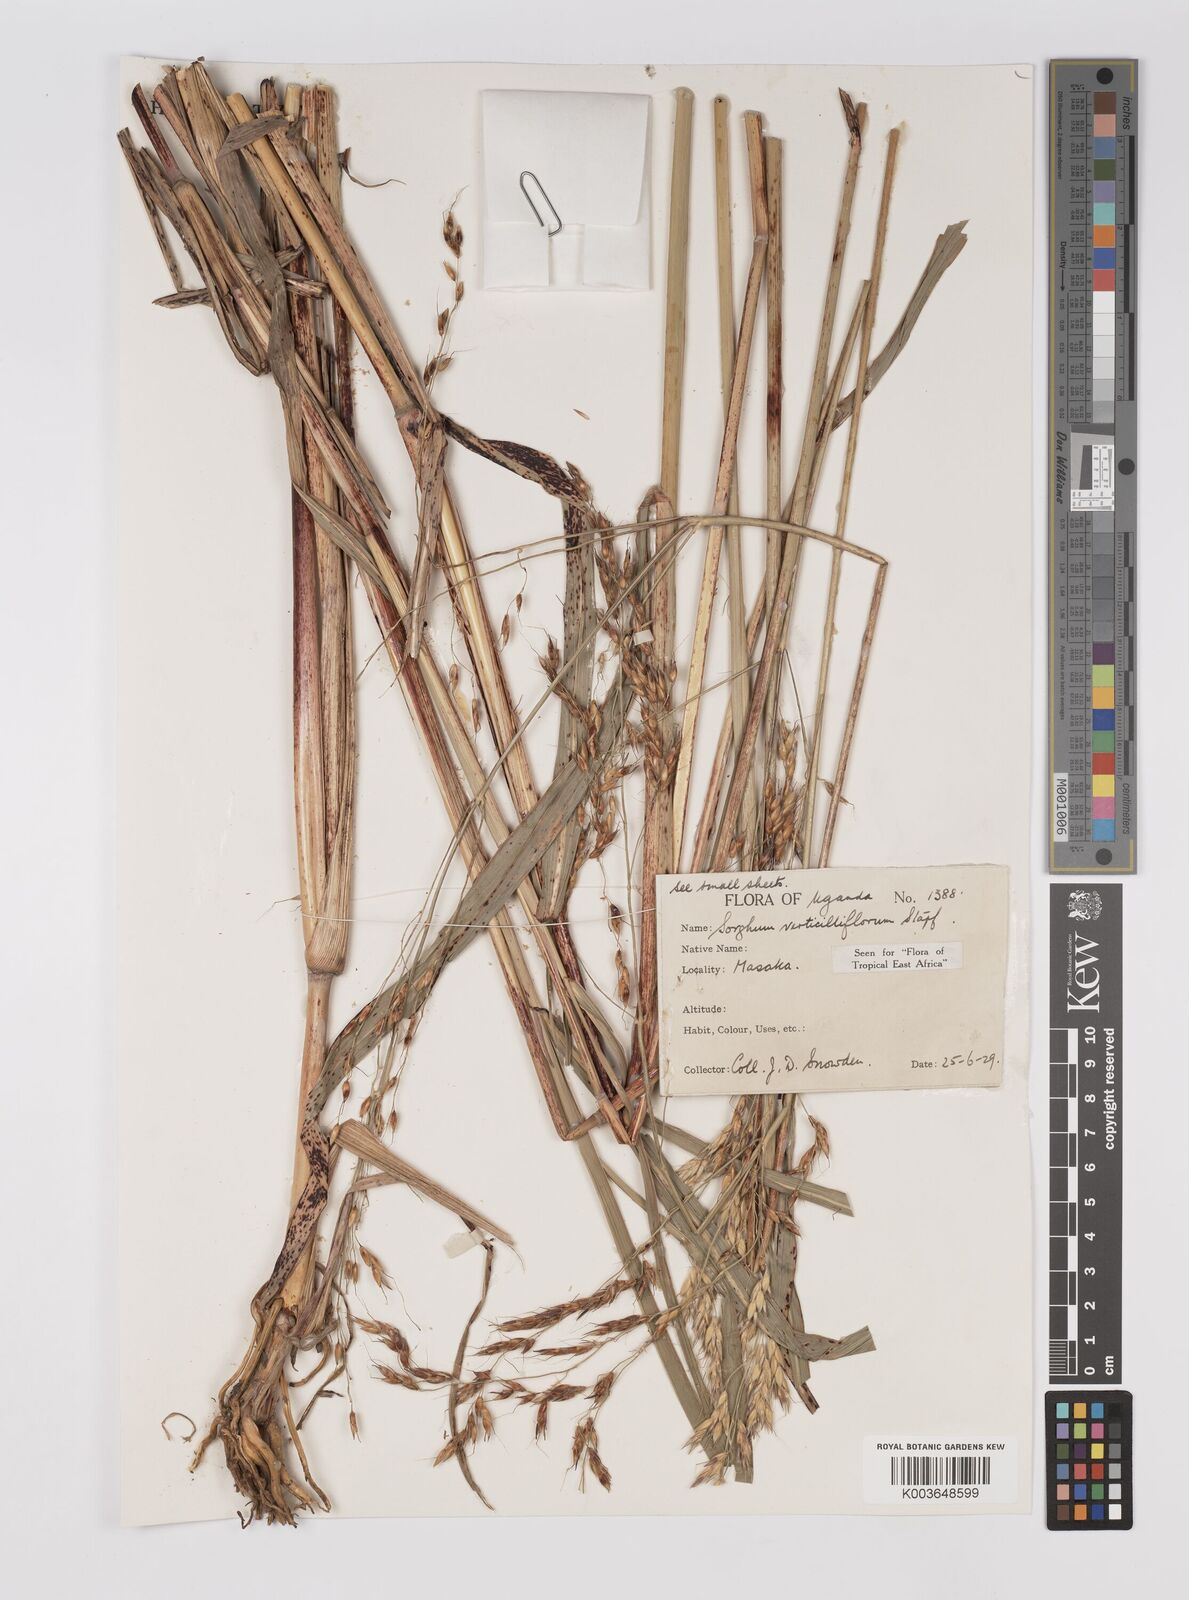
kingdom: Plantae
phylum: Tracheophyta
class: Liliopsida
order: Poales
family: Poaceae
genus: Sorghum
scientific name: Sorghum arundinaceum
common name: Sorghum
